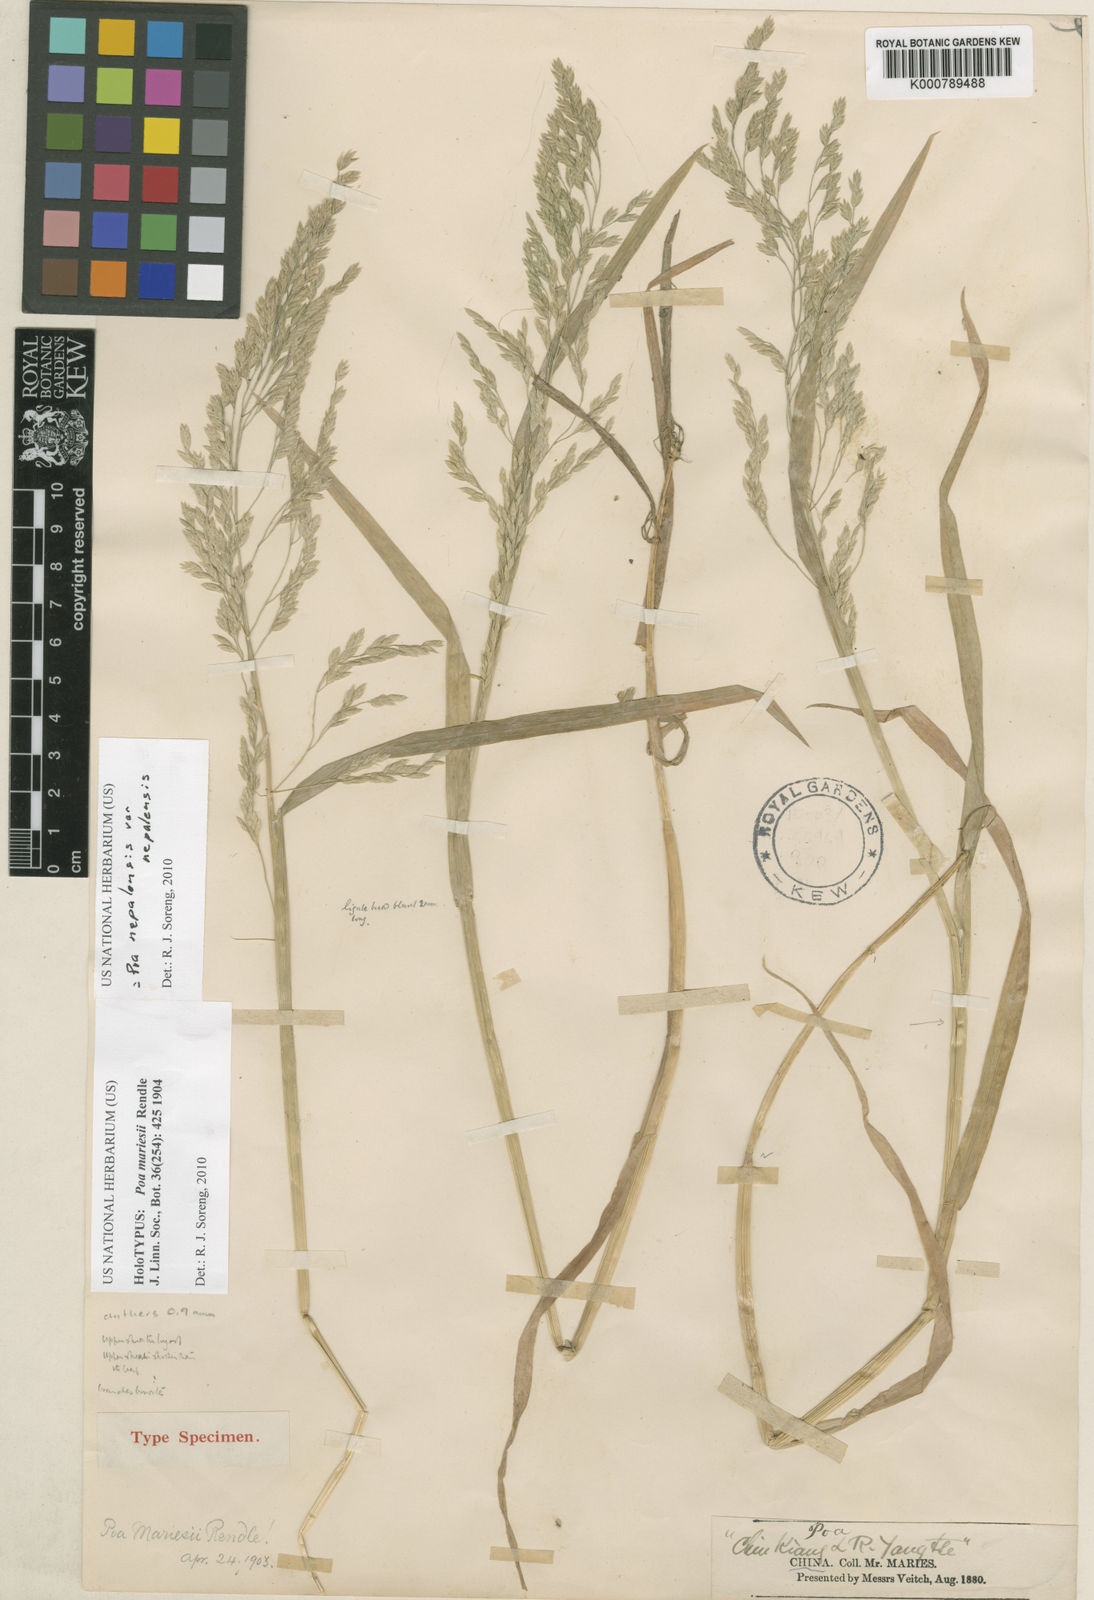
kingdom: Plantae
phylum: Tracheophyta
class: Liliopsida
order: Poales
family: Poaceae
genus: Poa
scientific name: Poa nepalensis
